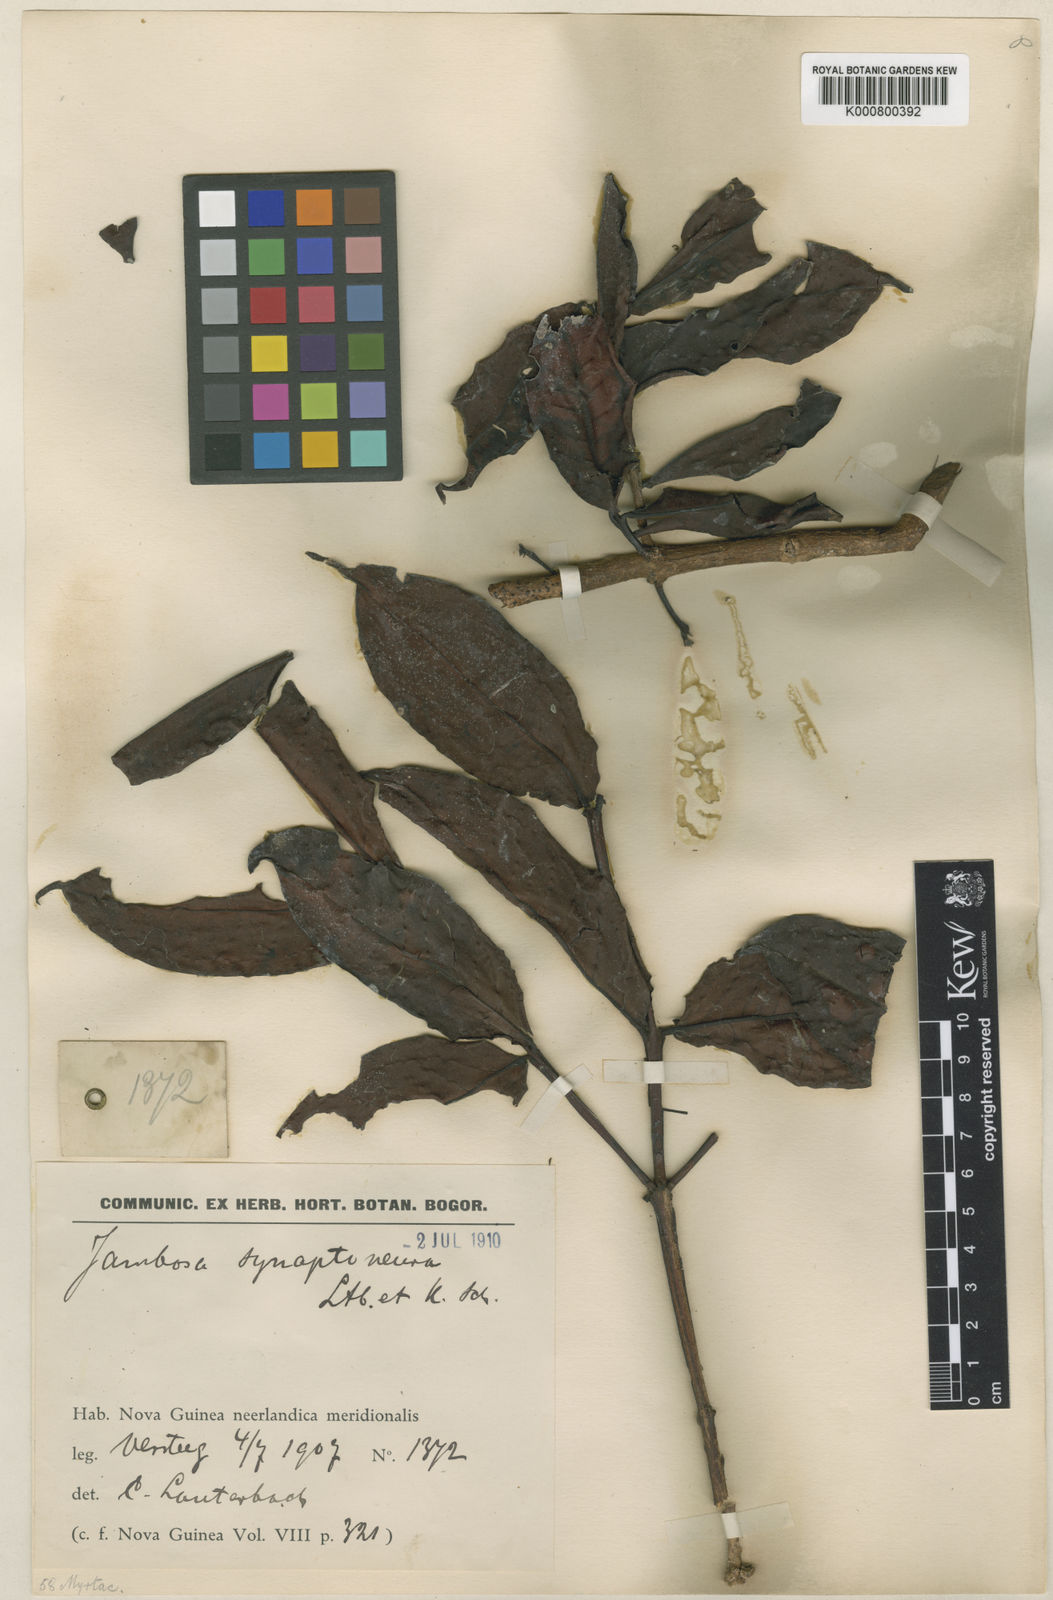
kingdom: Plantae
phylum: Tracheophyta
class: Magnoliopsida
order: Myrtales
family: Myrtaceae
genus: Syzygium
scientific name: Syzygium synaptoneurum
